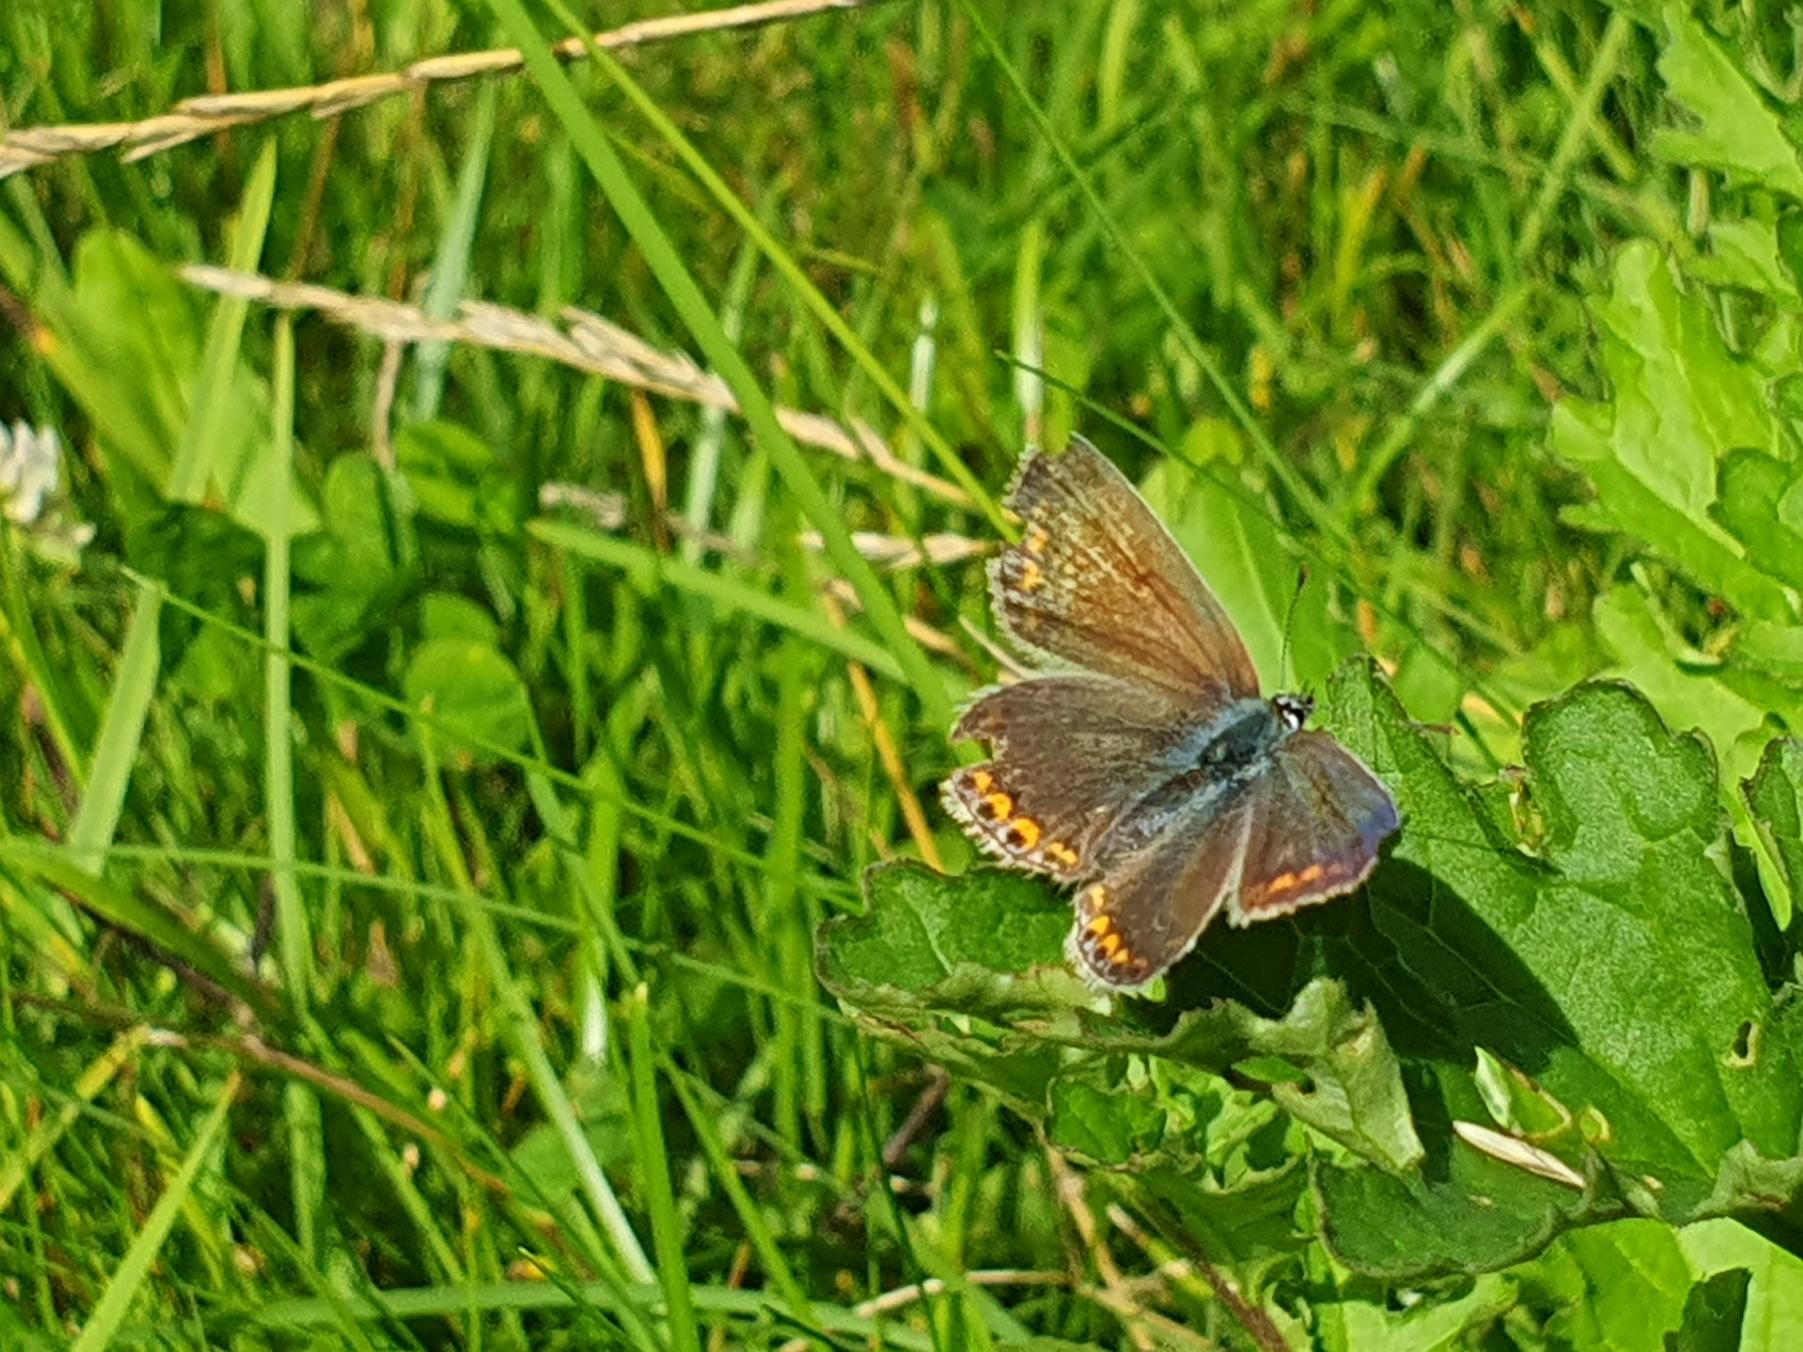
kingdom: Animalia
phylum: Arthropoda
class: Insecta
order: Lepidoptera
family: Lycaenidae
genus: Polyommatus
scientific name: Polyommatus icarus
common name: Almindelig blåfugl
